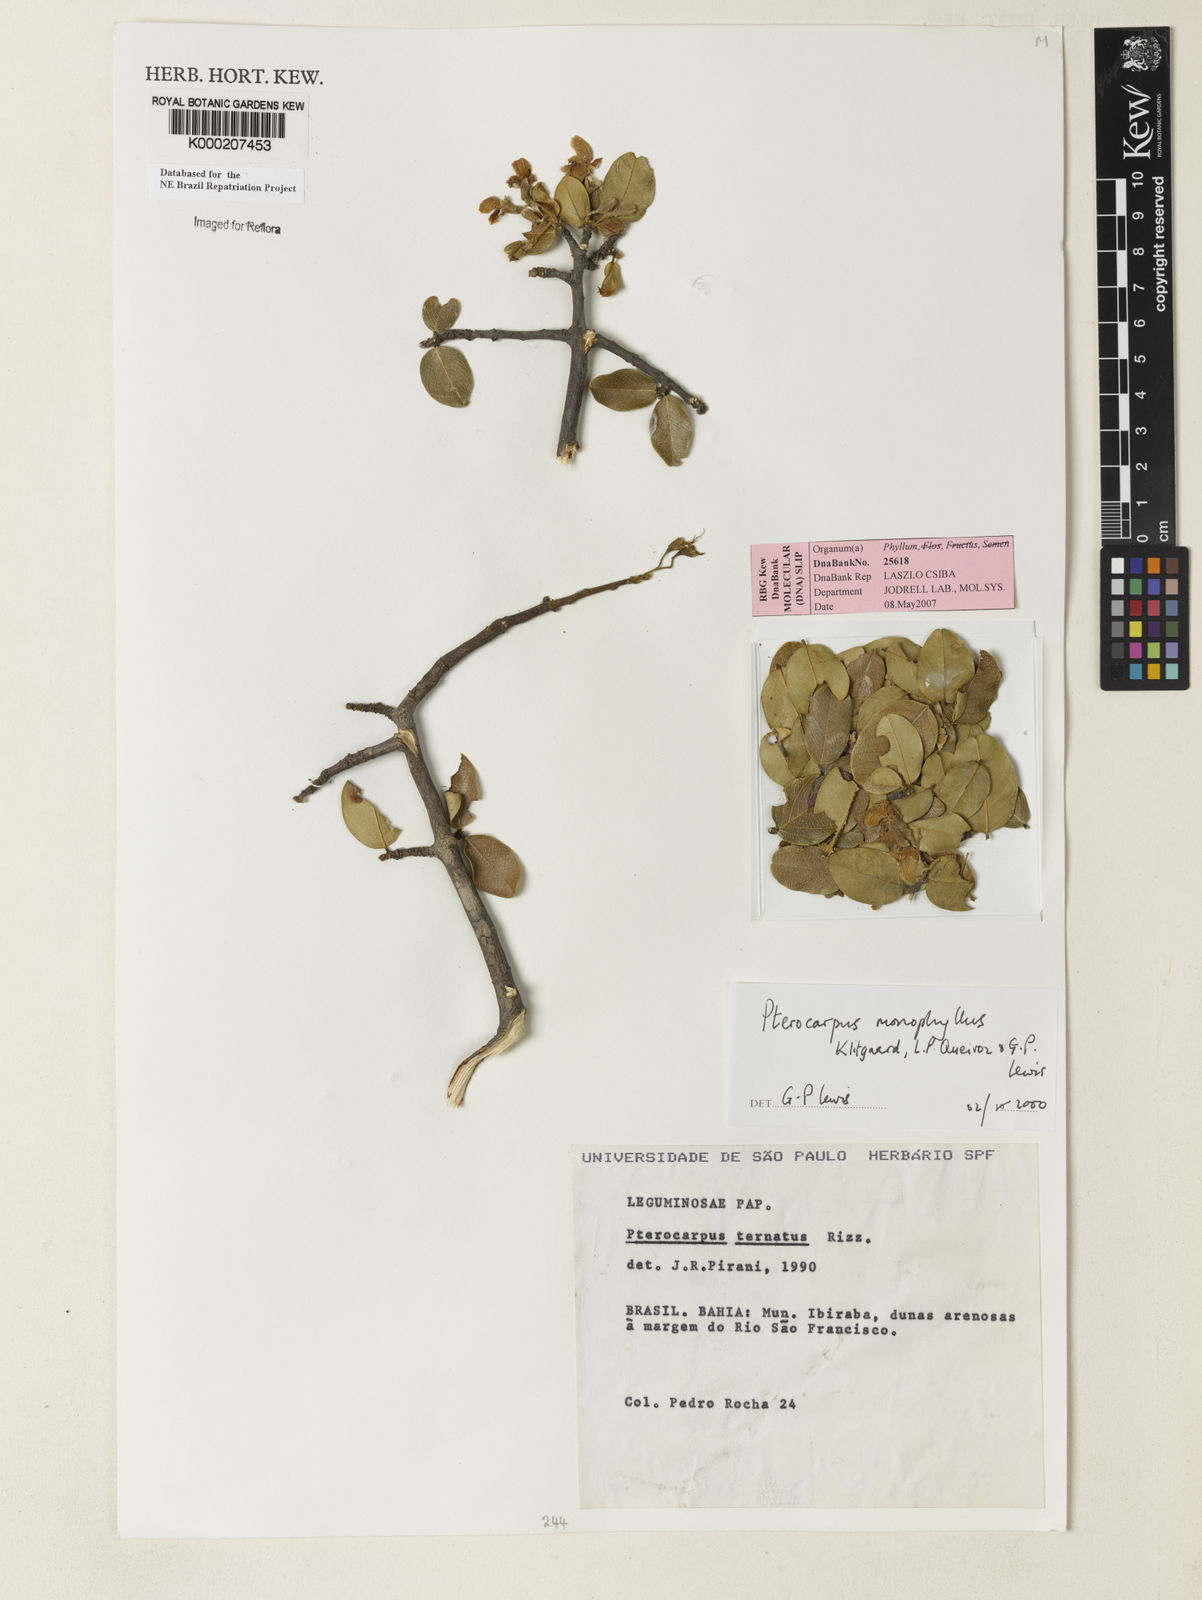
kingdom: Plantae
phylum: Tracheophyta
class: Magnoliopsida
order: Fabales
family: Fabaceae
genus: Pterocarpus
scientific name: Pterocarpus
